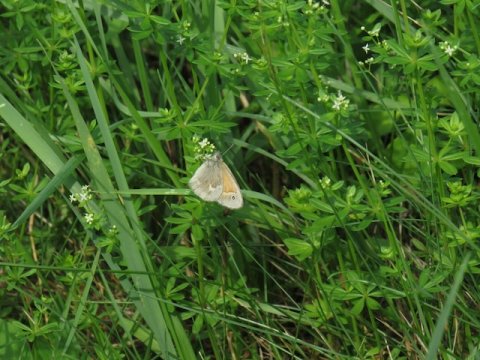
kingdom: Animalia
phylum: Arthropoda
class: Insecta
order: Lepidoptera
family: Nymphalidae
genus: Coenonympha
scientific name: Coenonympha tullia
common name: Large Heath
